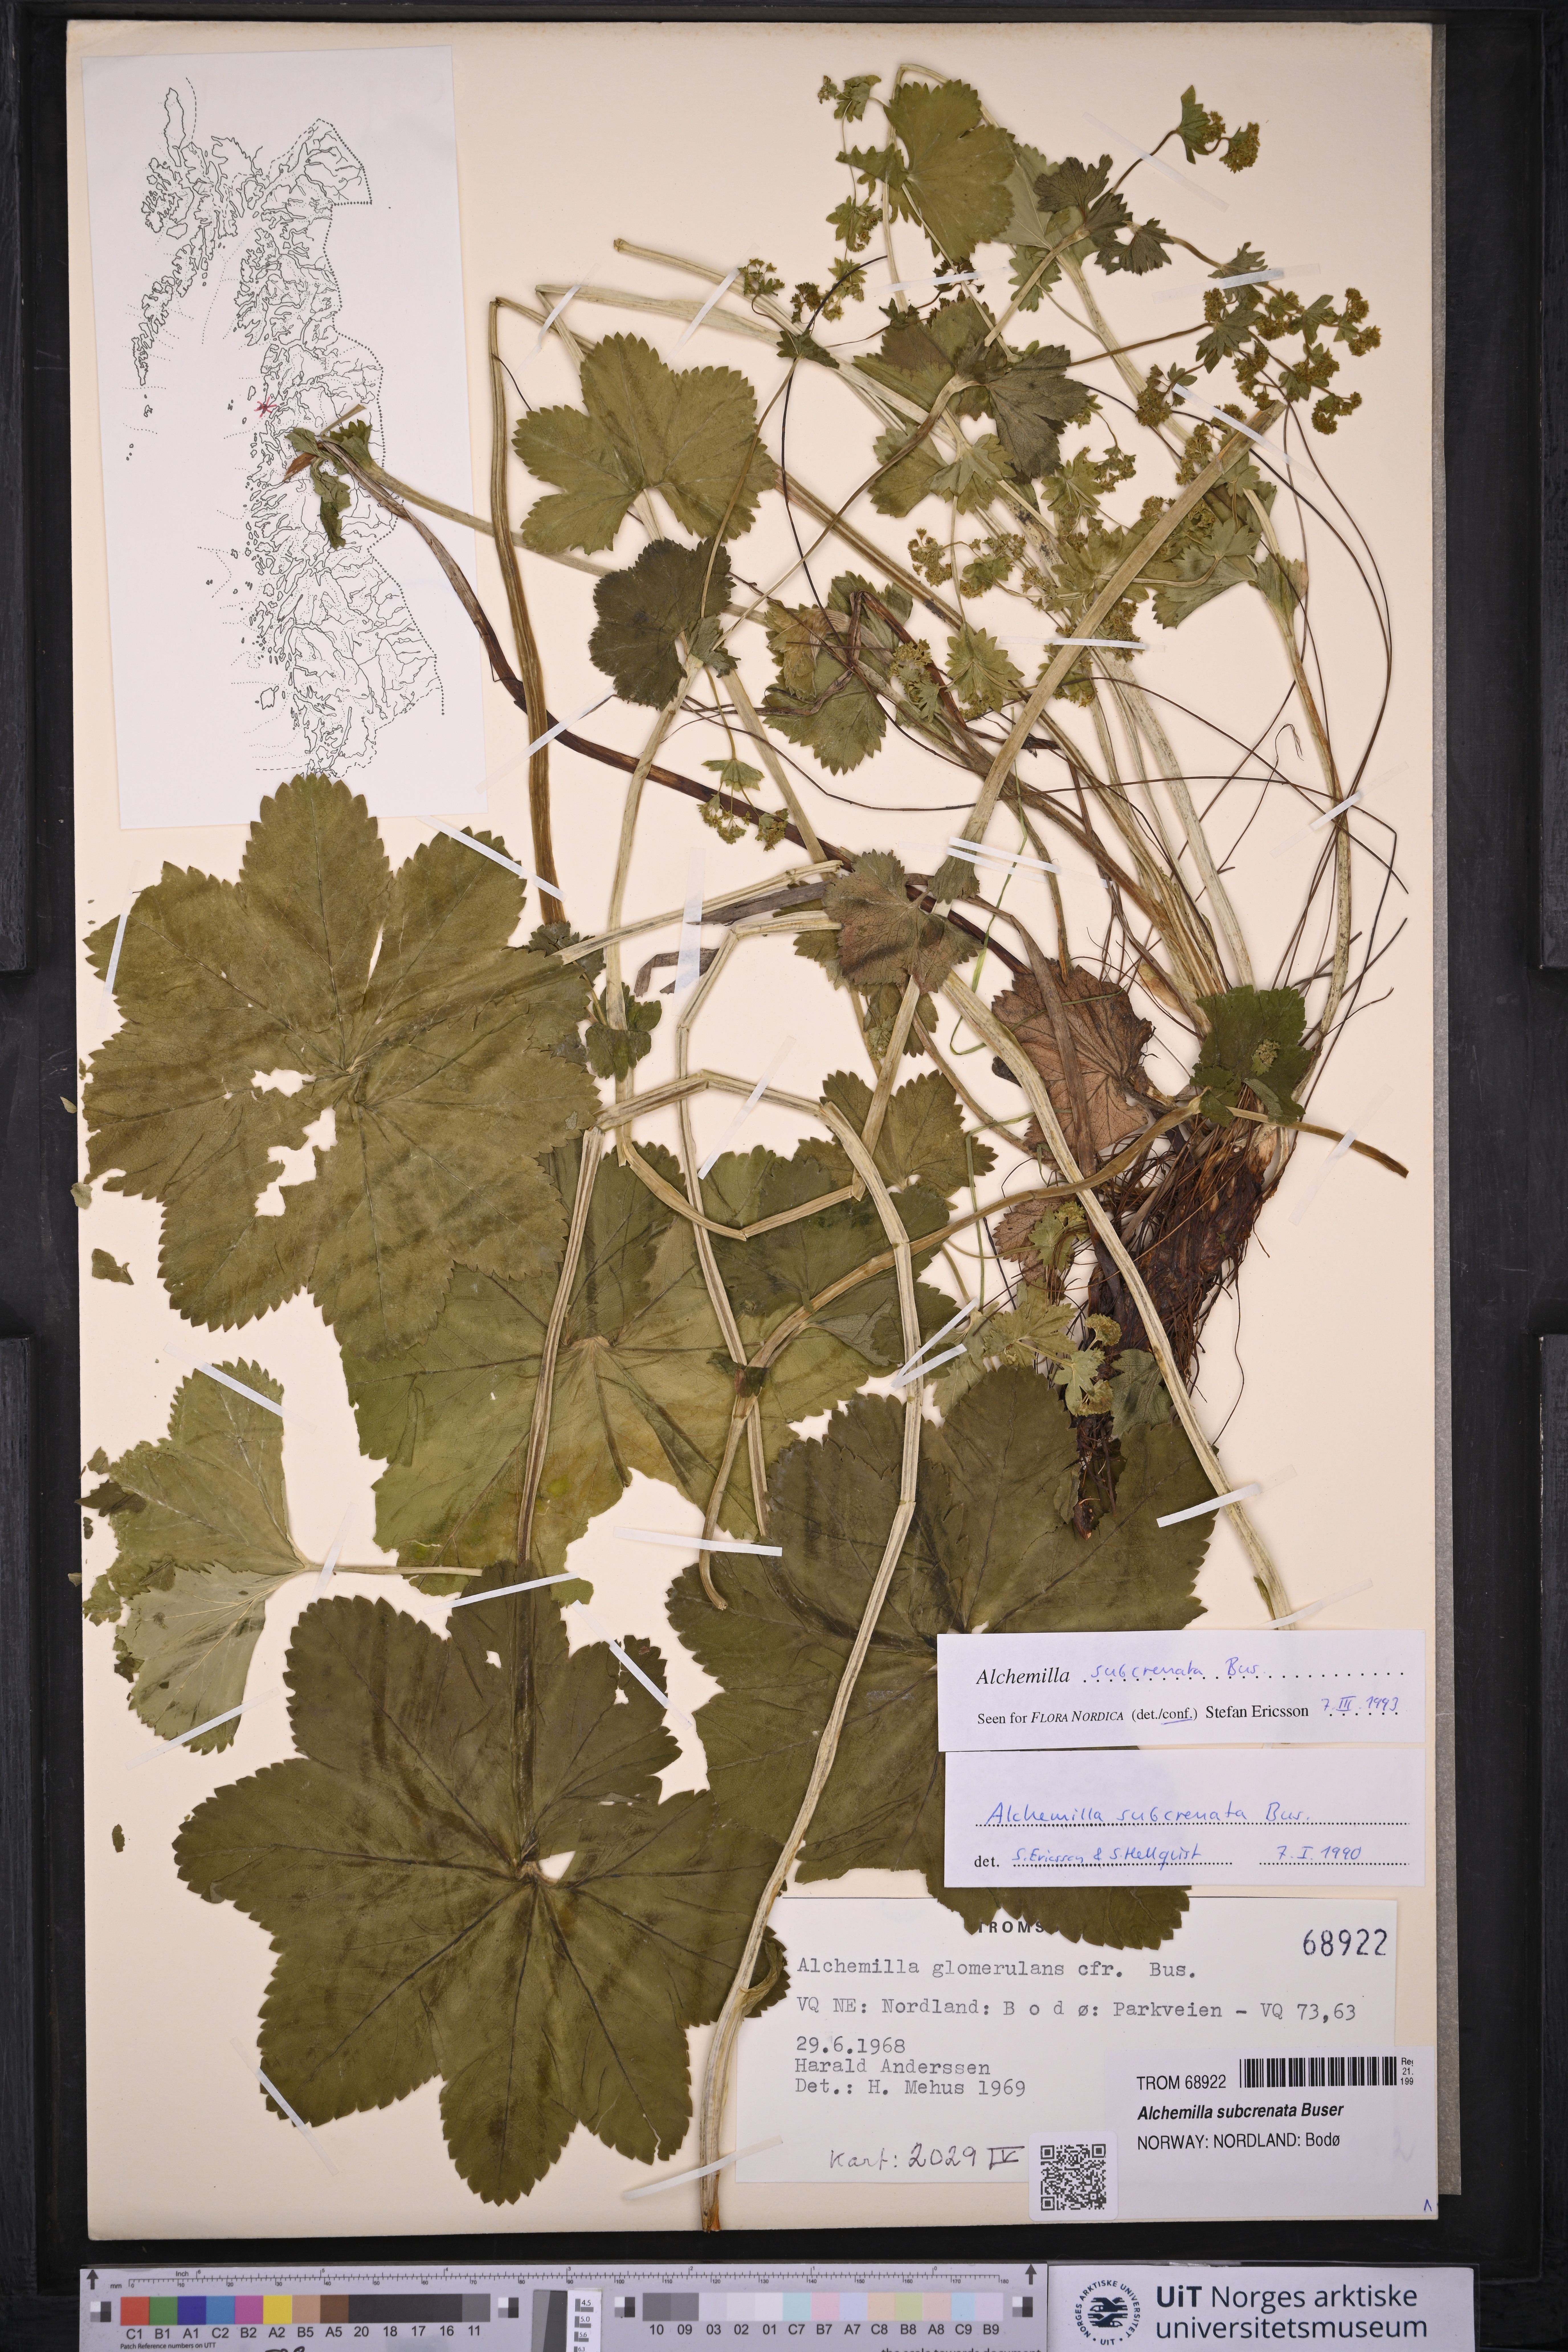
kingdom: Plantae
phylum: Tracheophyta
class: Magnoliopsida
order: Rosales
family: Rosaceae
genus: Alchemilla
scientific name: Alchemilla subcrenata
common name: Broadtooth lady's mantle
